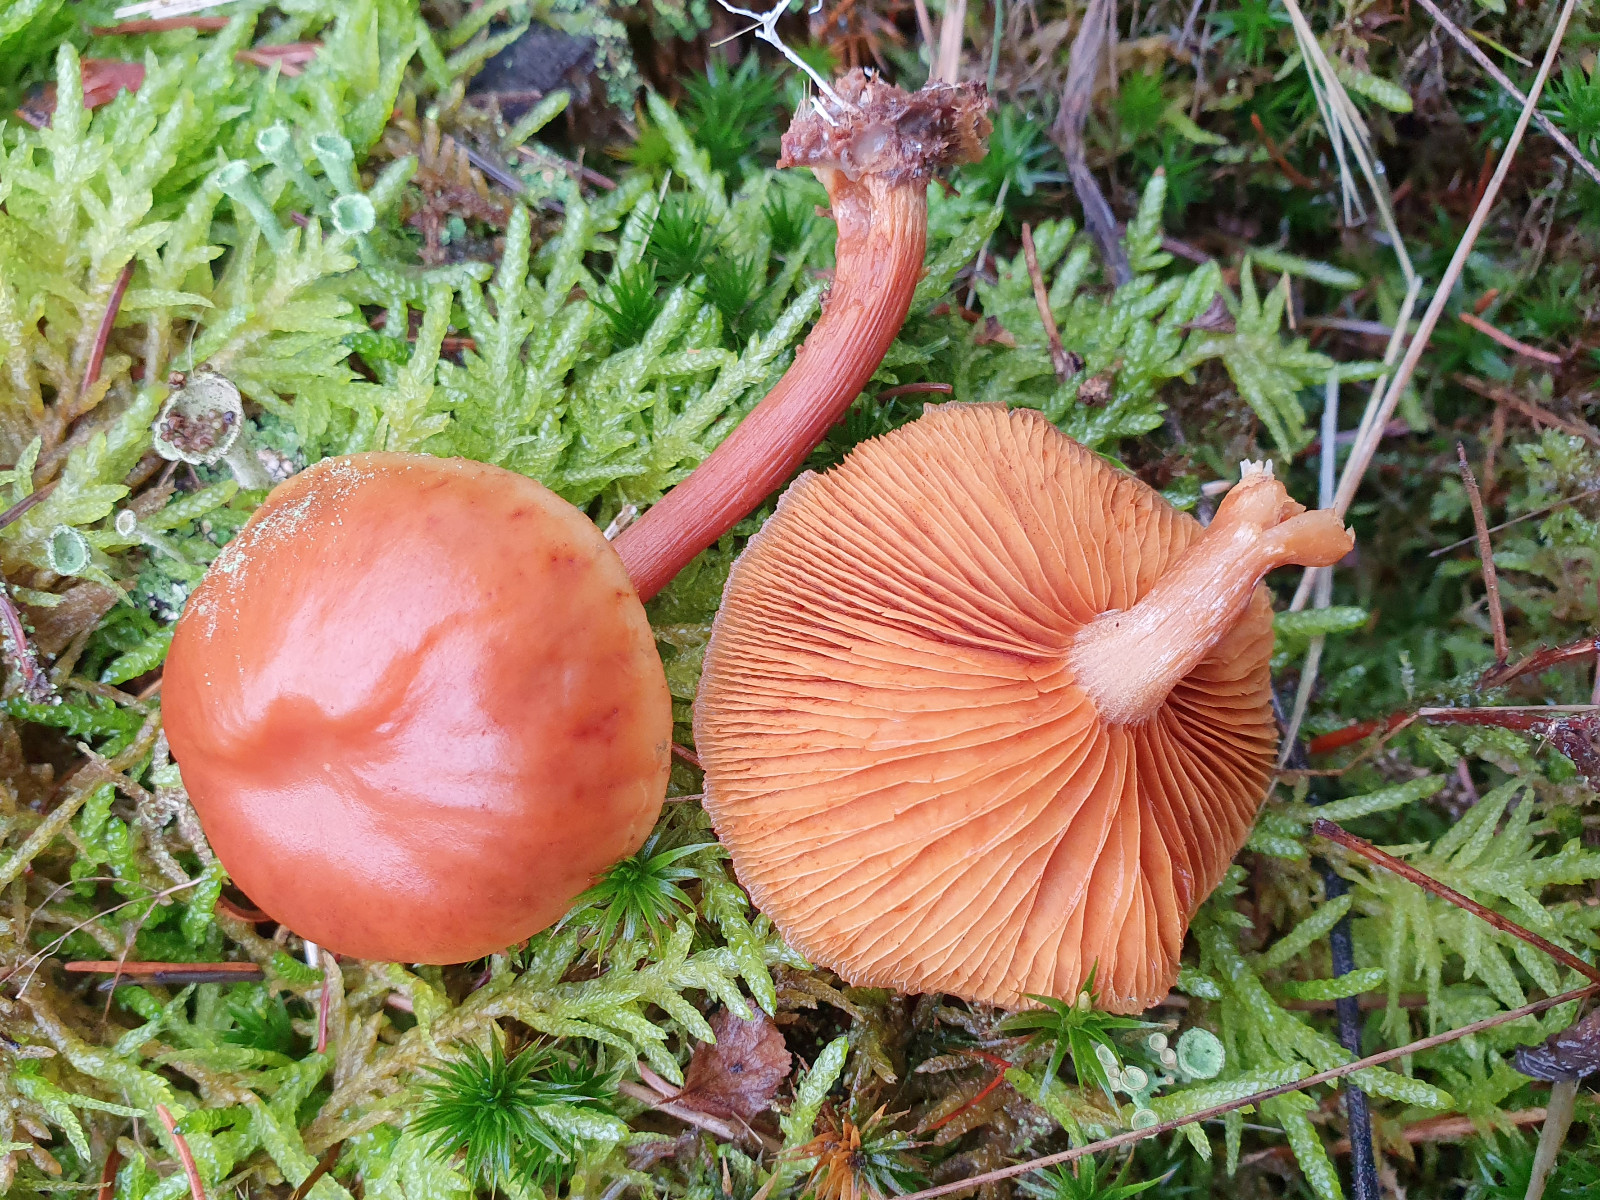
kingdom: Fungi
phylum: Basidiomycota
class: Agaricomycetes
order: Agaricales
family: Hymenogastraceae
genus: Gymnopilus
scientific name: Gymnopilus penetrans
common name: plettet flammehat
